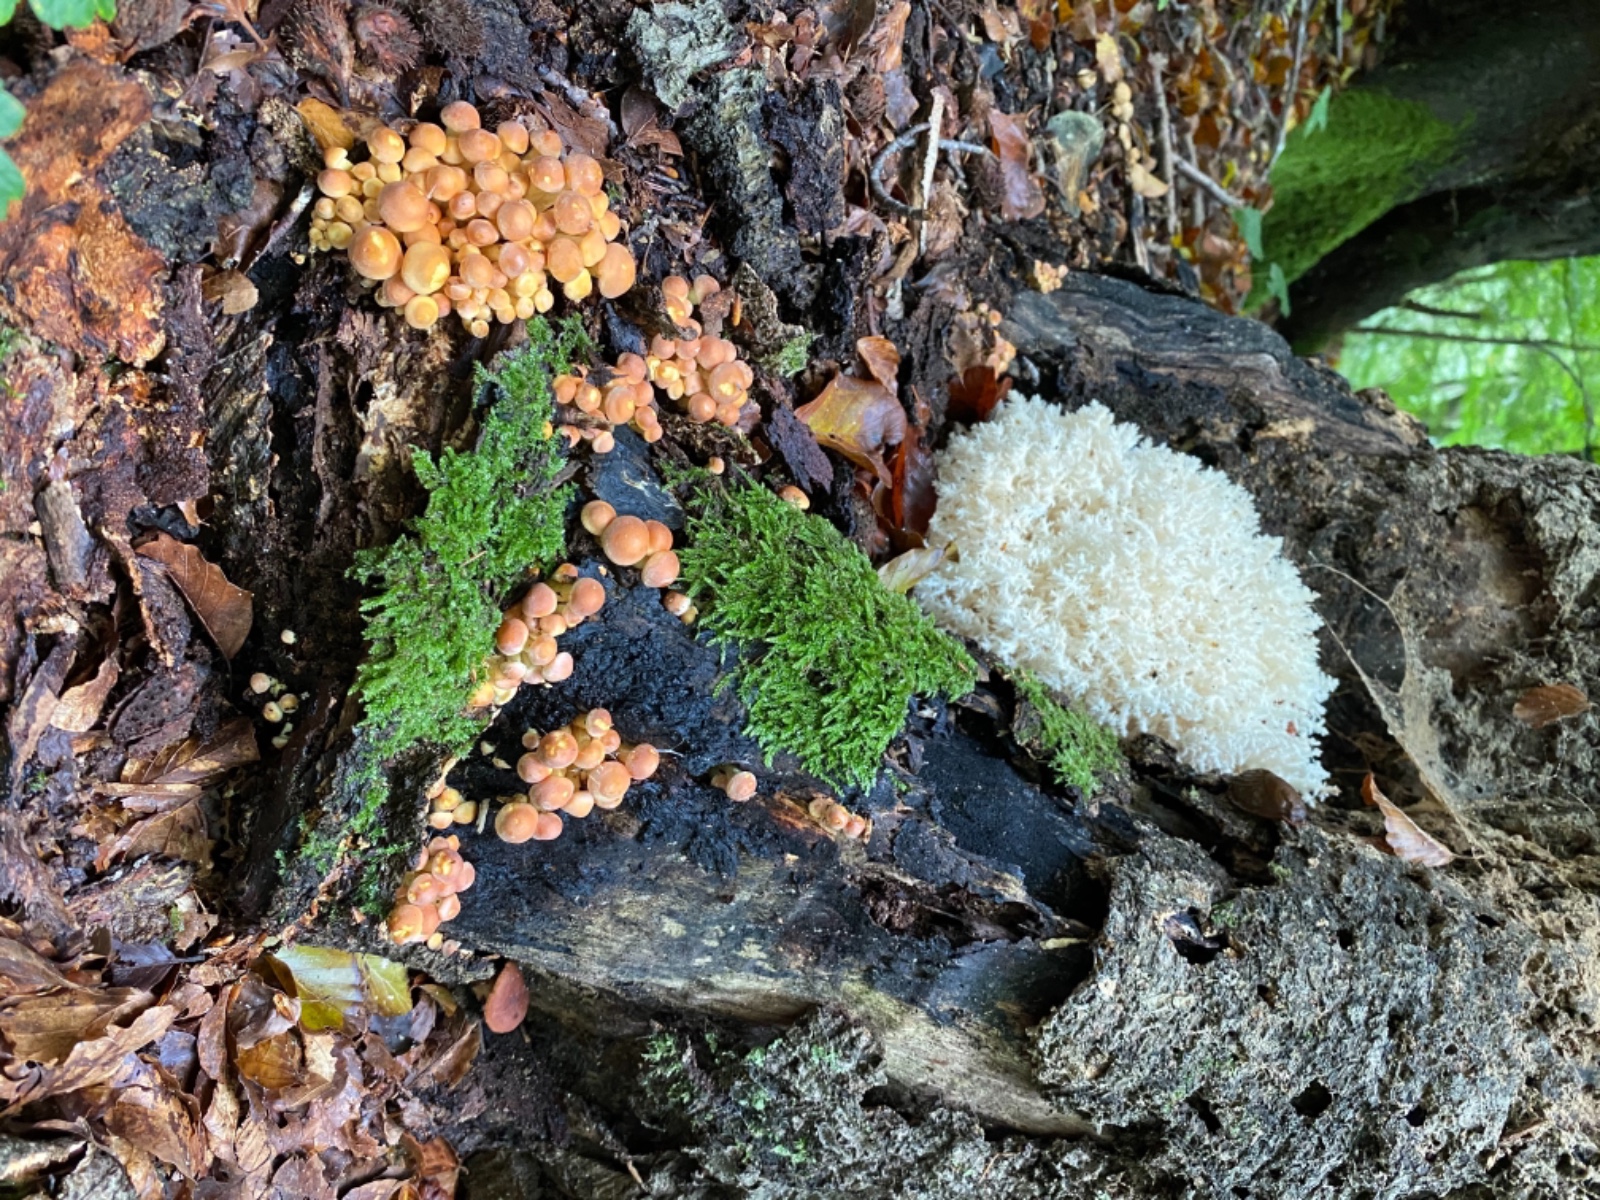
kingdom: Fungi
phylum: Basidiomycota
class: Agaricomycetes
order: Russulales
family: Hericiaceae
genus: Hericium
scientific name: Hericium coralloides
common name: koralpigsvamp
